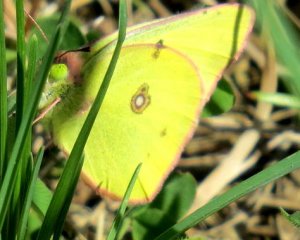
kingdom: Animalia
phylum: Arthropoda
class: Insecta
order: Lepidoptera
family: Pieridae
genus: Colias
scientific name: Colias philodice
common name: Clouded Sulphur
